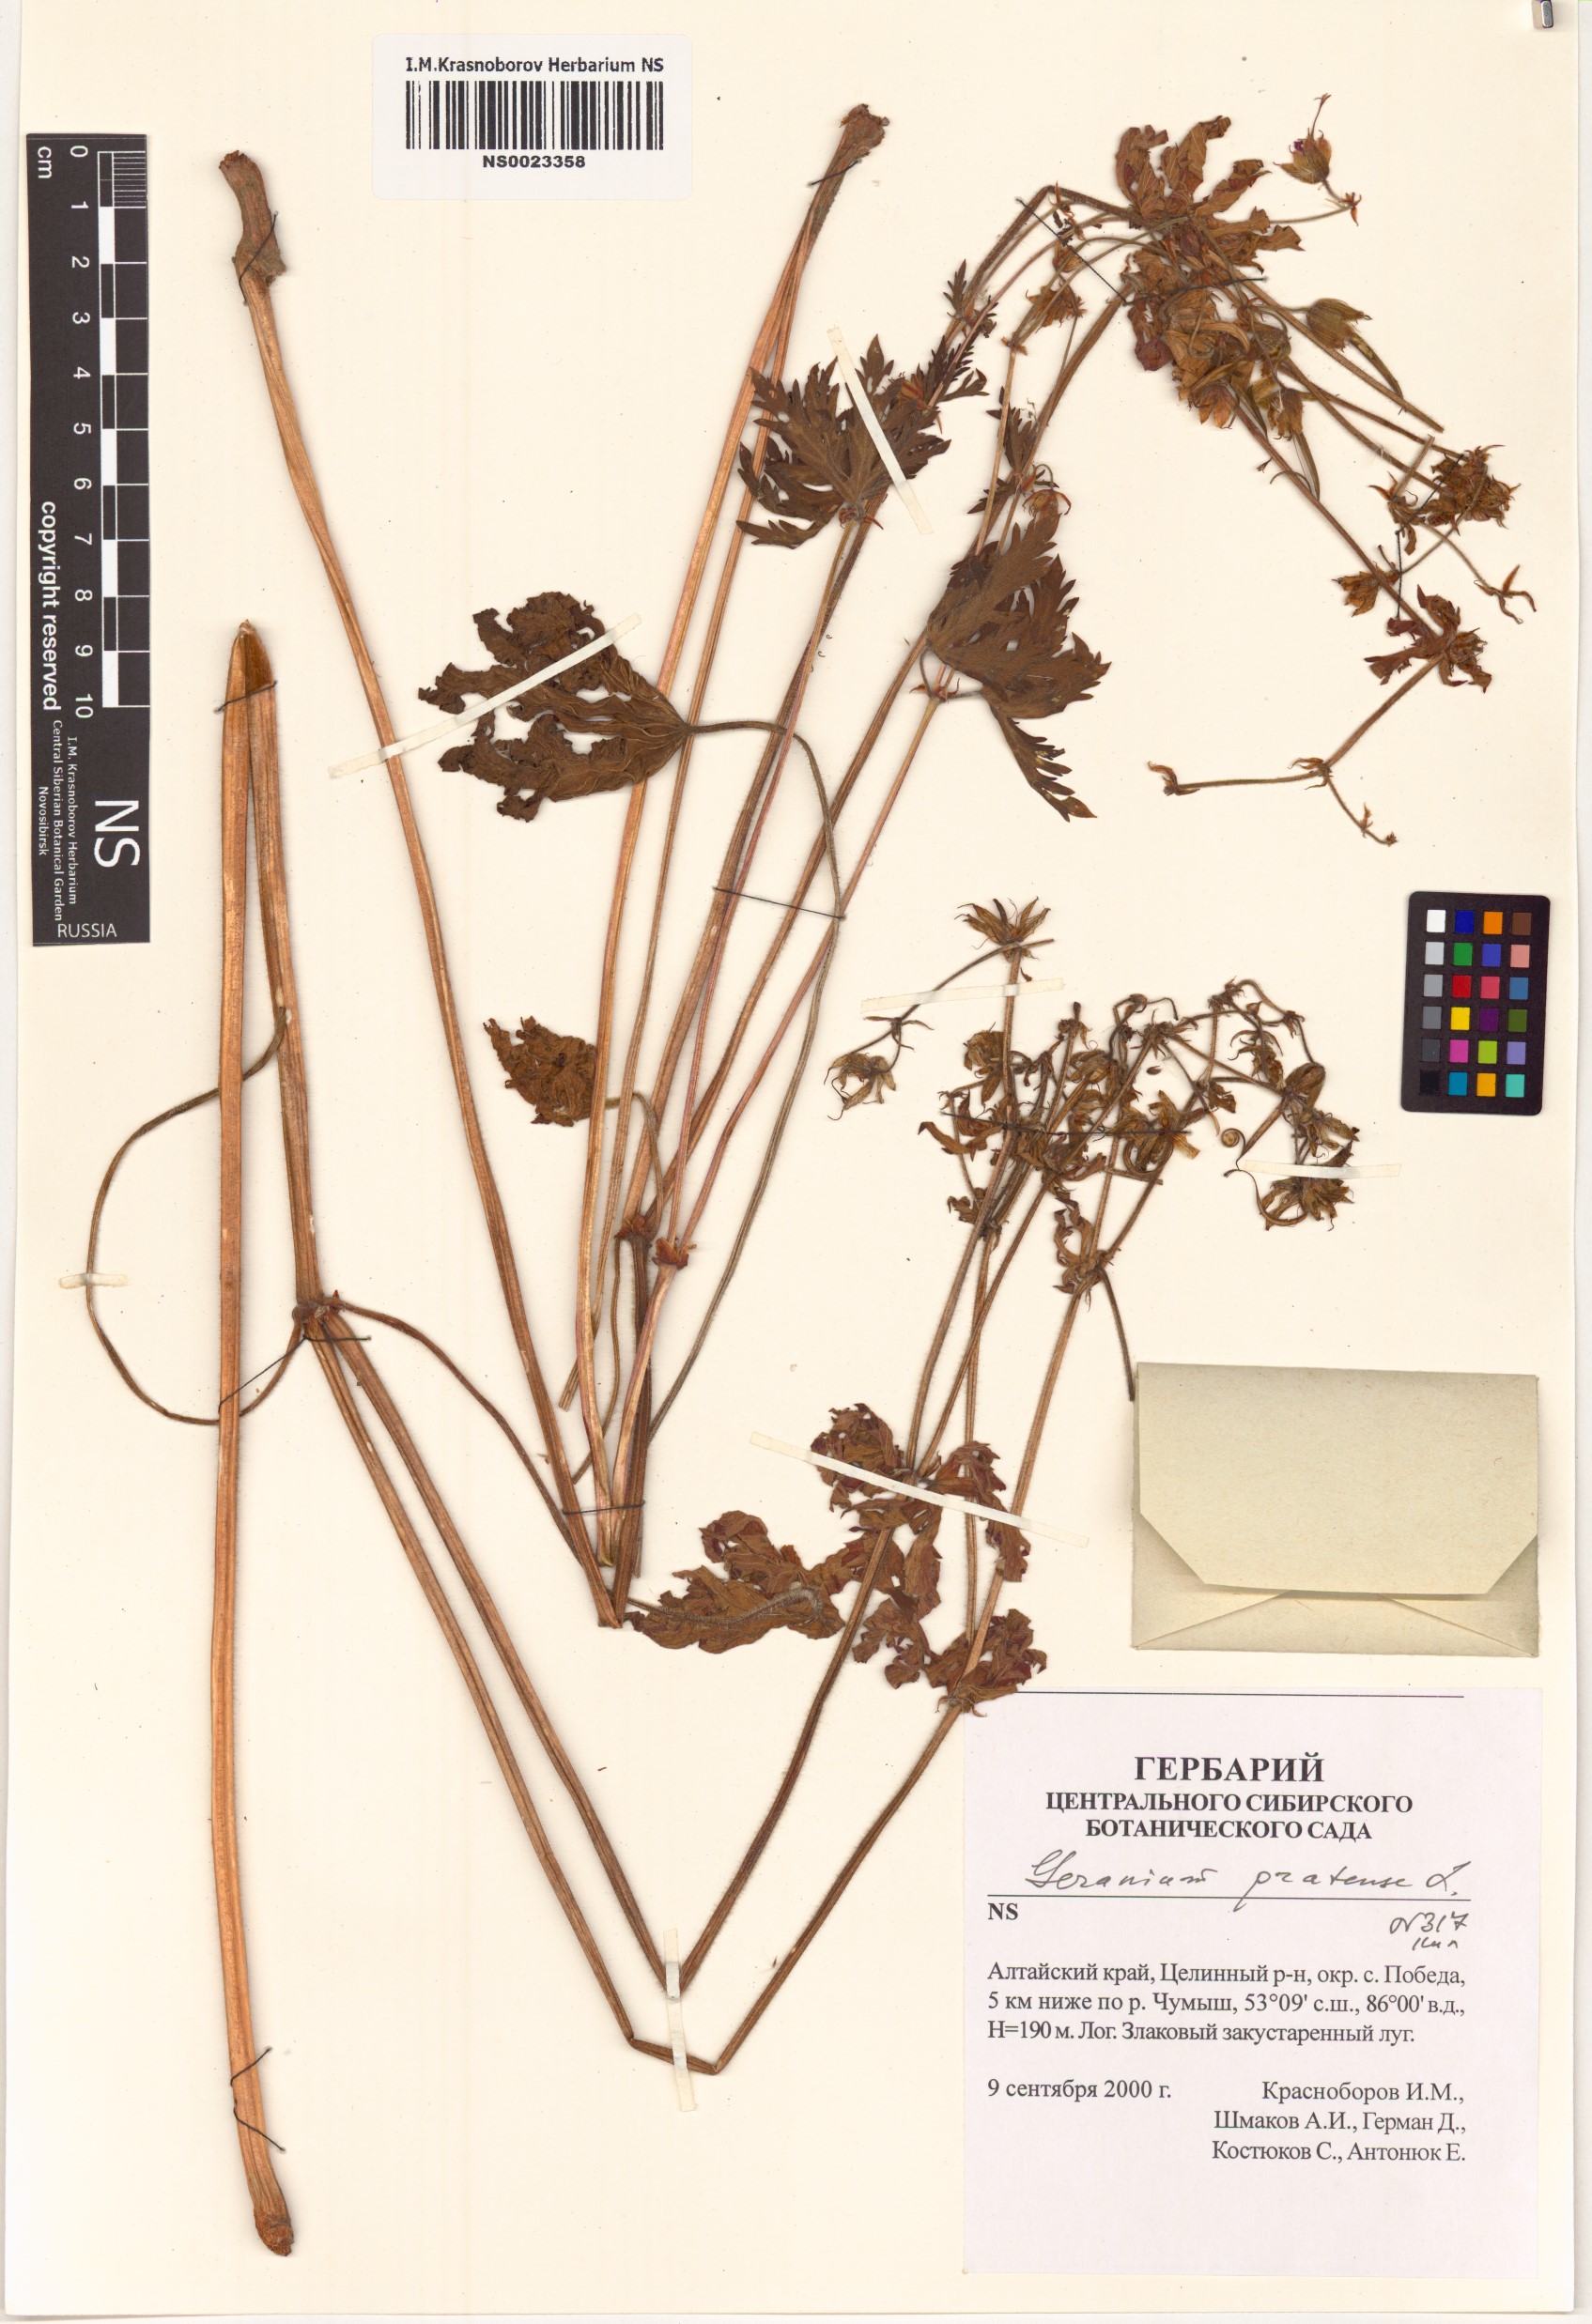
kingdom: Plantae
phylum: Tracheophyta
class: Magnoliopsida
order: Geraniales
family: Geraniaceae
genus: Geranium
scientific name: Geranium pratense
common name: Meadow crane's-bill
